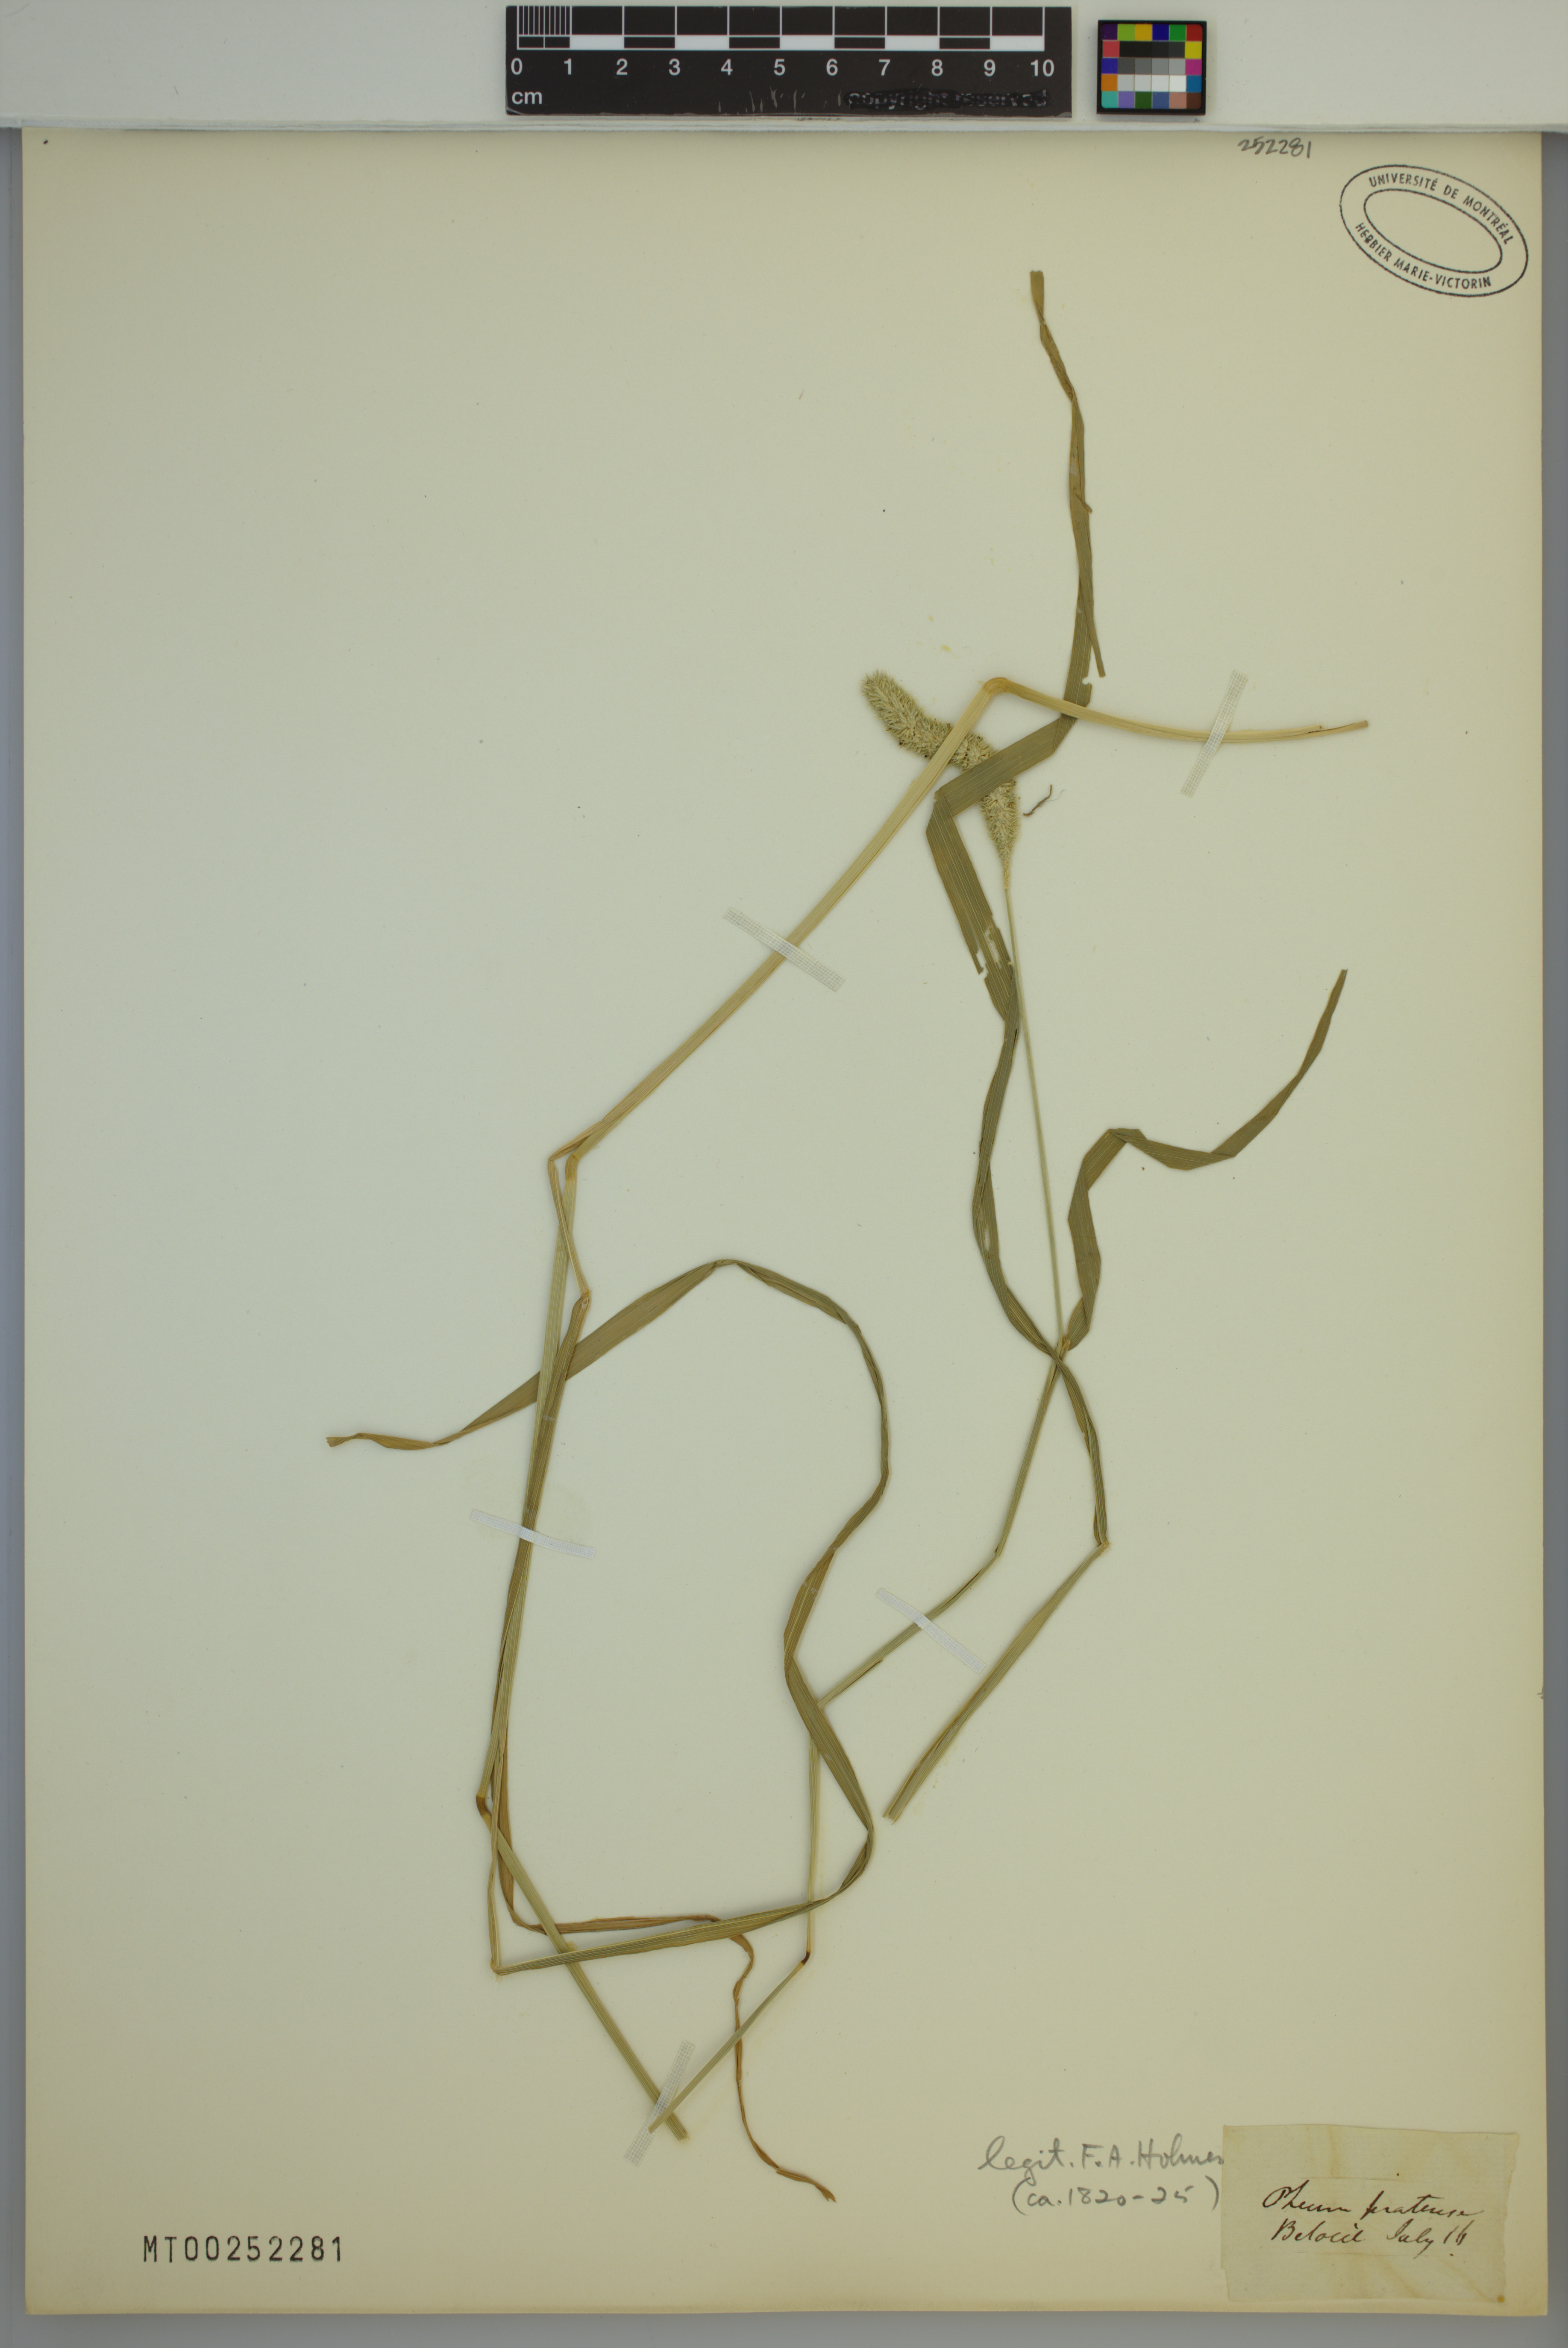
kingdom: Plantae
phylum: Tracheophyta
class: Liliopsida
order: Poales
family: Poaceae
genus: Phleum
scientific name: Phleum pratense
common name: Timothy grass
